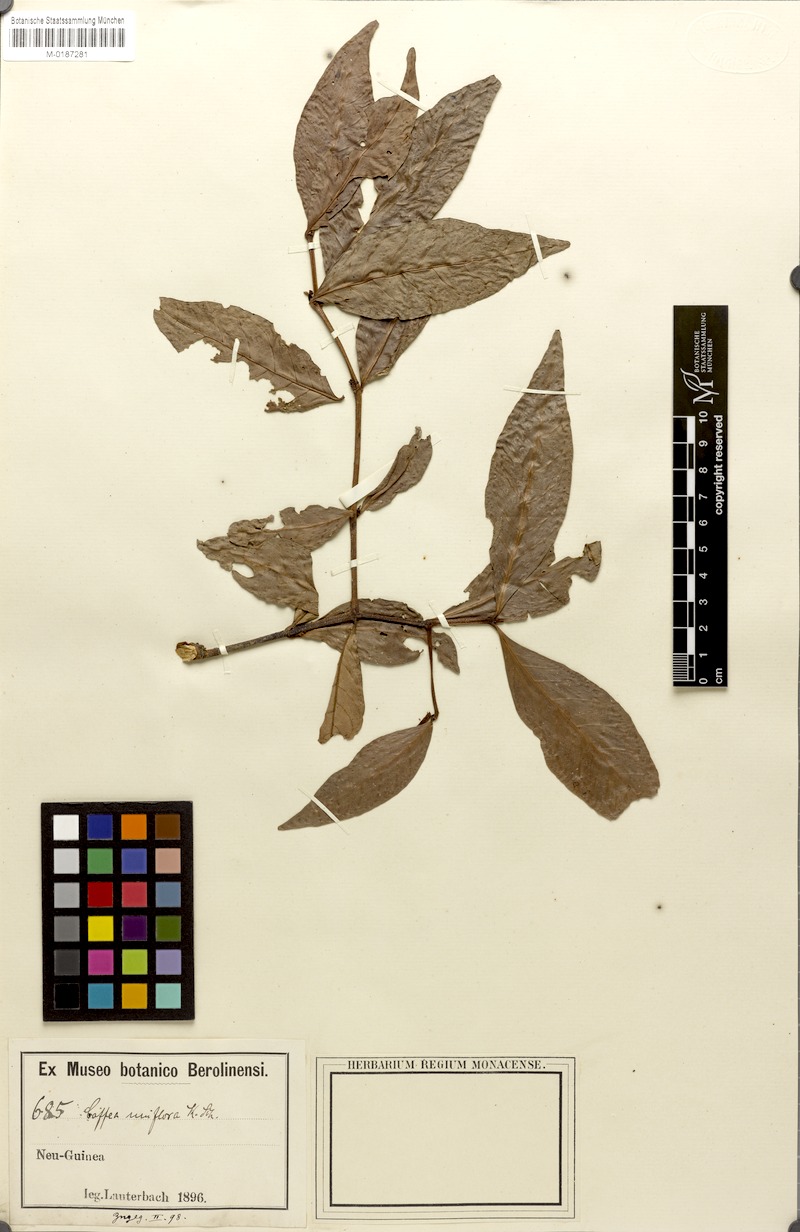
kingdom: Plantae
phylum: Tracheophyta
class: Magnoliopsida
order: Gentianales
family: Rubiaceae
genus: Coffea
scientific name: Coffea uniflora
